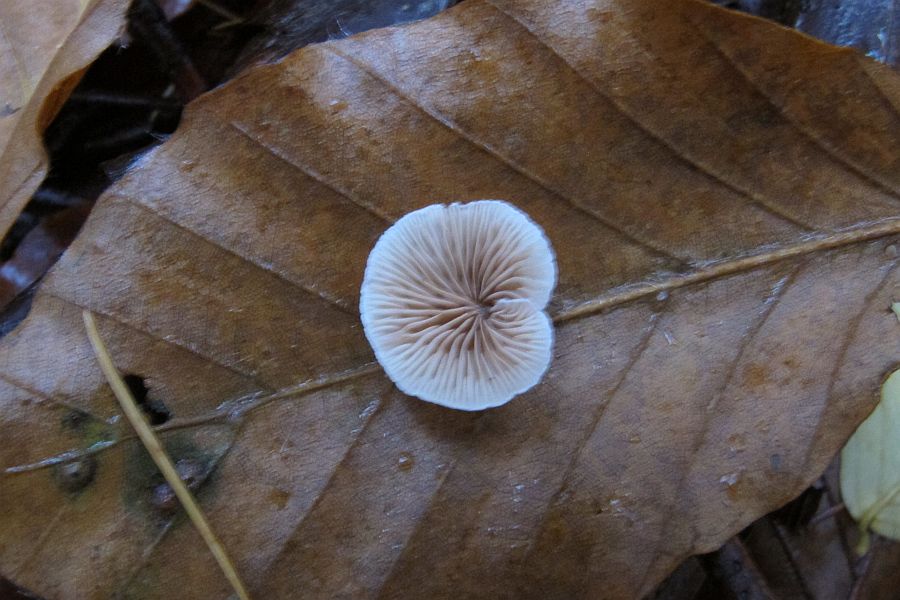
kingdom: Fungi
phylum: Basidiomycota
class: Agaricomycetes
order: Agaricales
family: Crepidotaceae
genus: Crepidotus
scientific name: Crepidotus cesatii
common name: almindelig muslingesvamp
